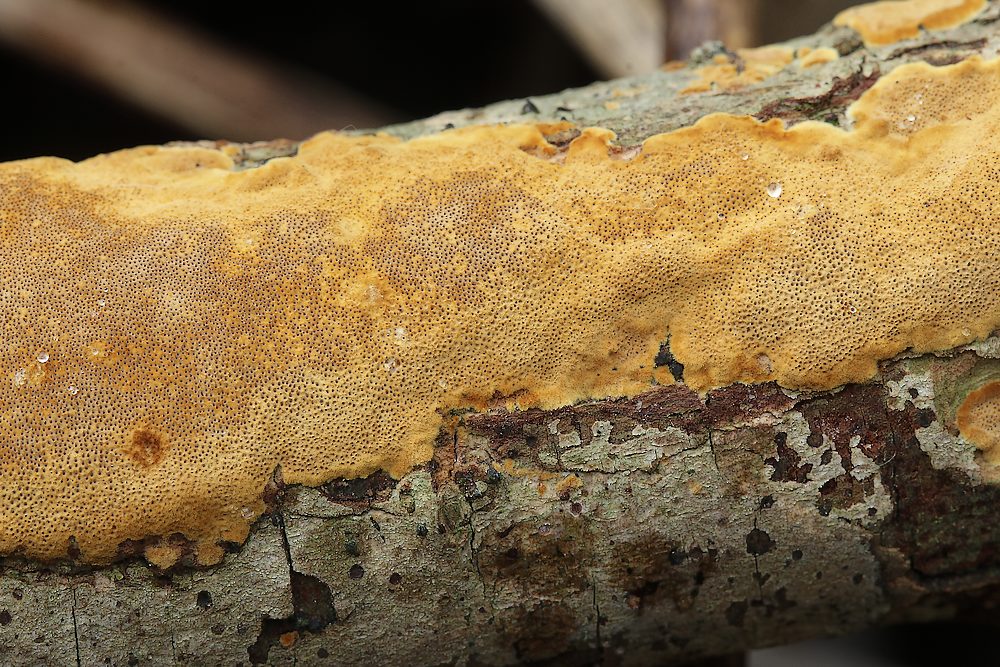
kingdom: Fungi
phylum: Basidiomycota
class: Agaricomycetes
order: Hymenochaetales
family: Hymenochaetaceae
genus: Fuscoporia
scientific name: Fuscoporia ferrea
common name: skorpe-ildporesvamp
